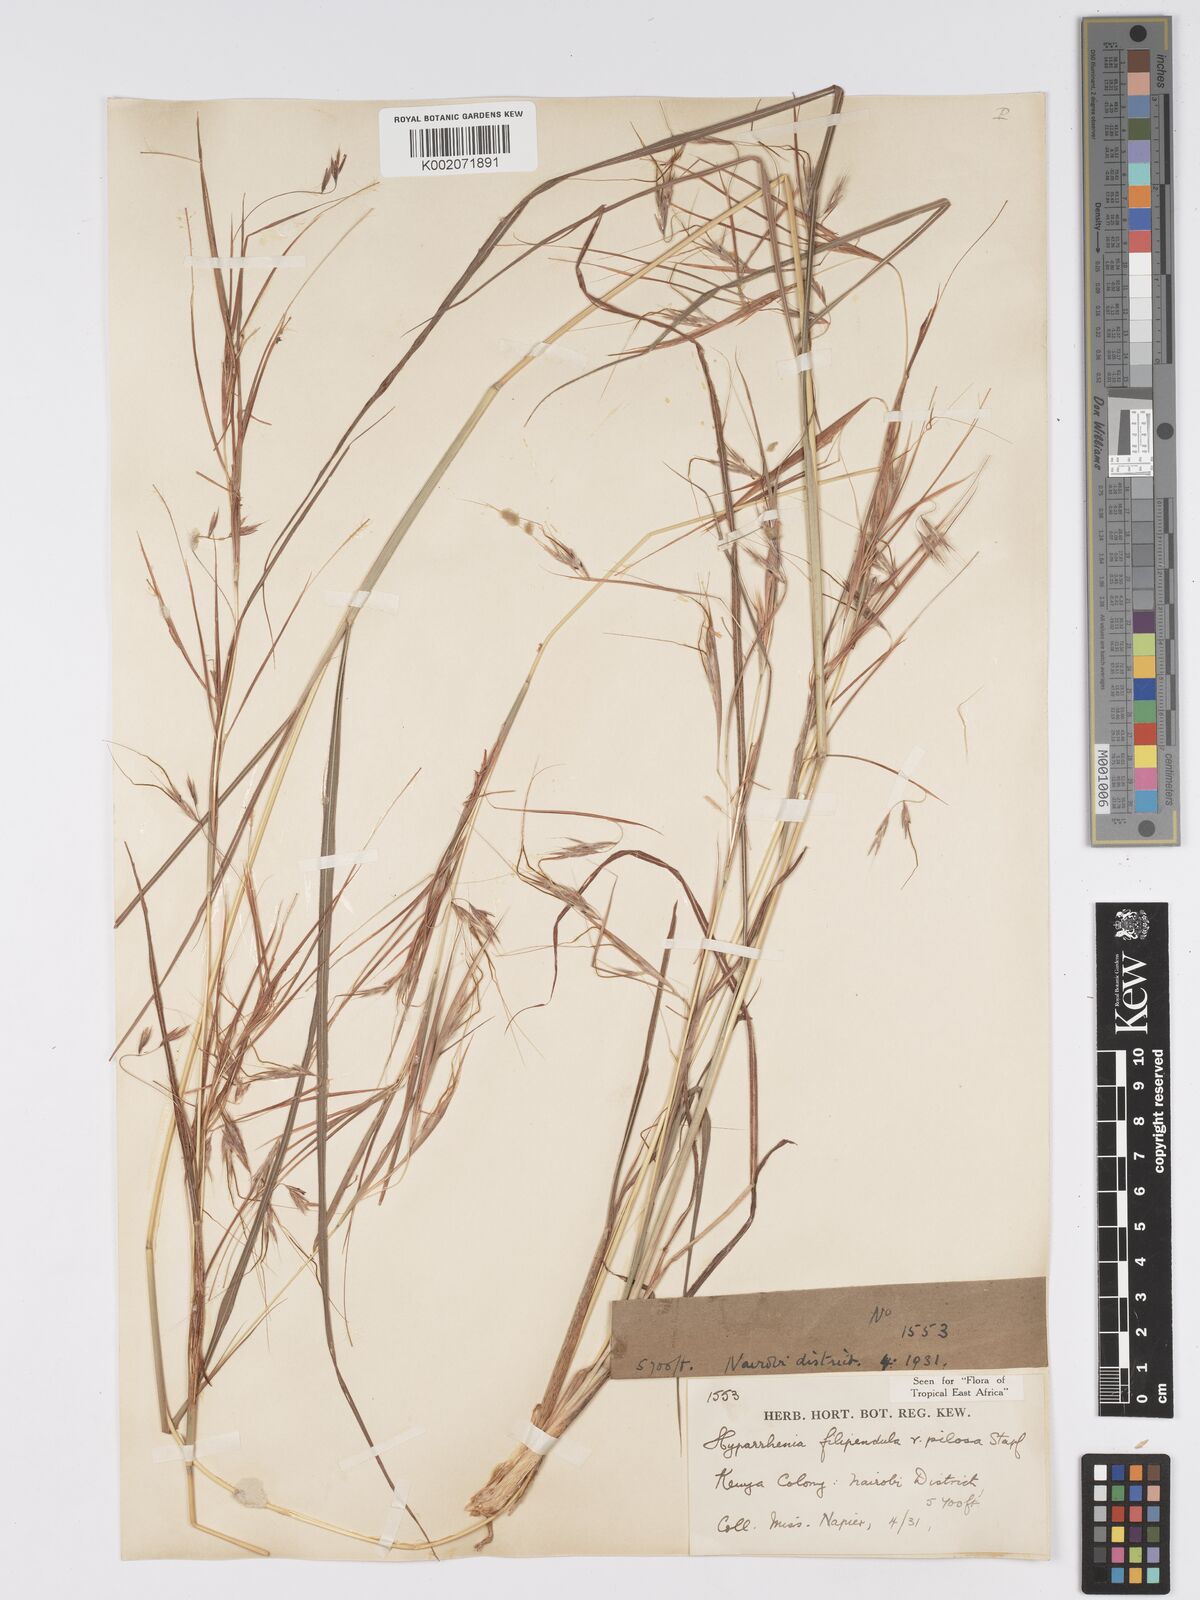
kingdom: Plantae
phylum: Tracheophyta
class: Liliopsida
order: Poales
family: Poaceae
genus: Hyparrhenia
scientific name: Hyparrhenia filipendula
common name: Tambookie grass
